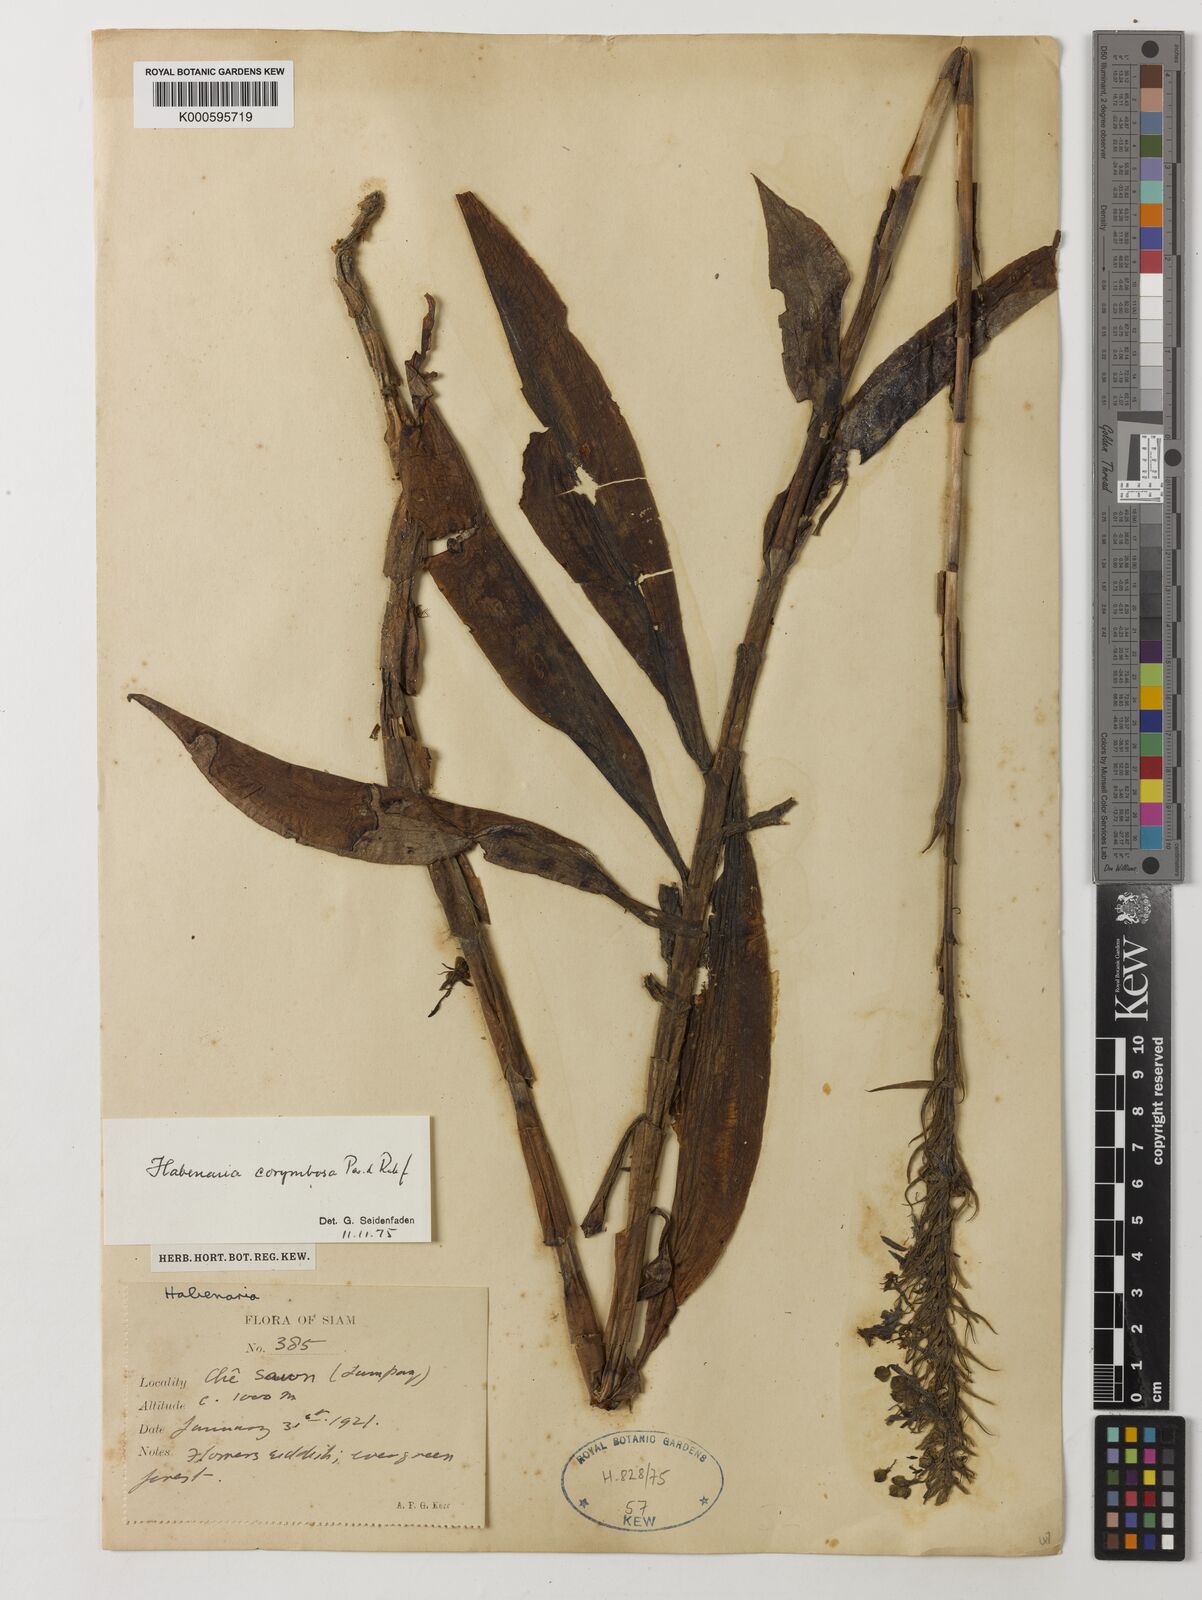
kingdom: Plantae
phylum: Tracheophyta
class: Liliopsida
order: Asparagales
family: Orchidaceae
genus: Habenaria
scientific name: Habenaria corymbosa
